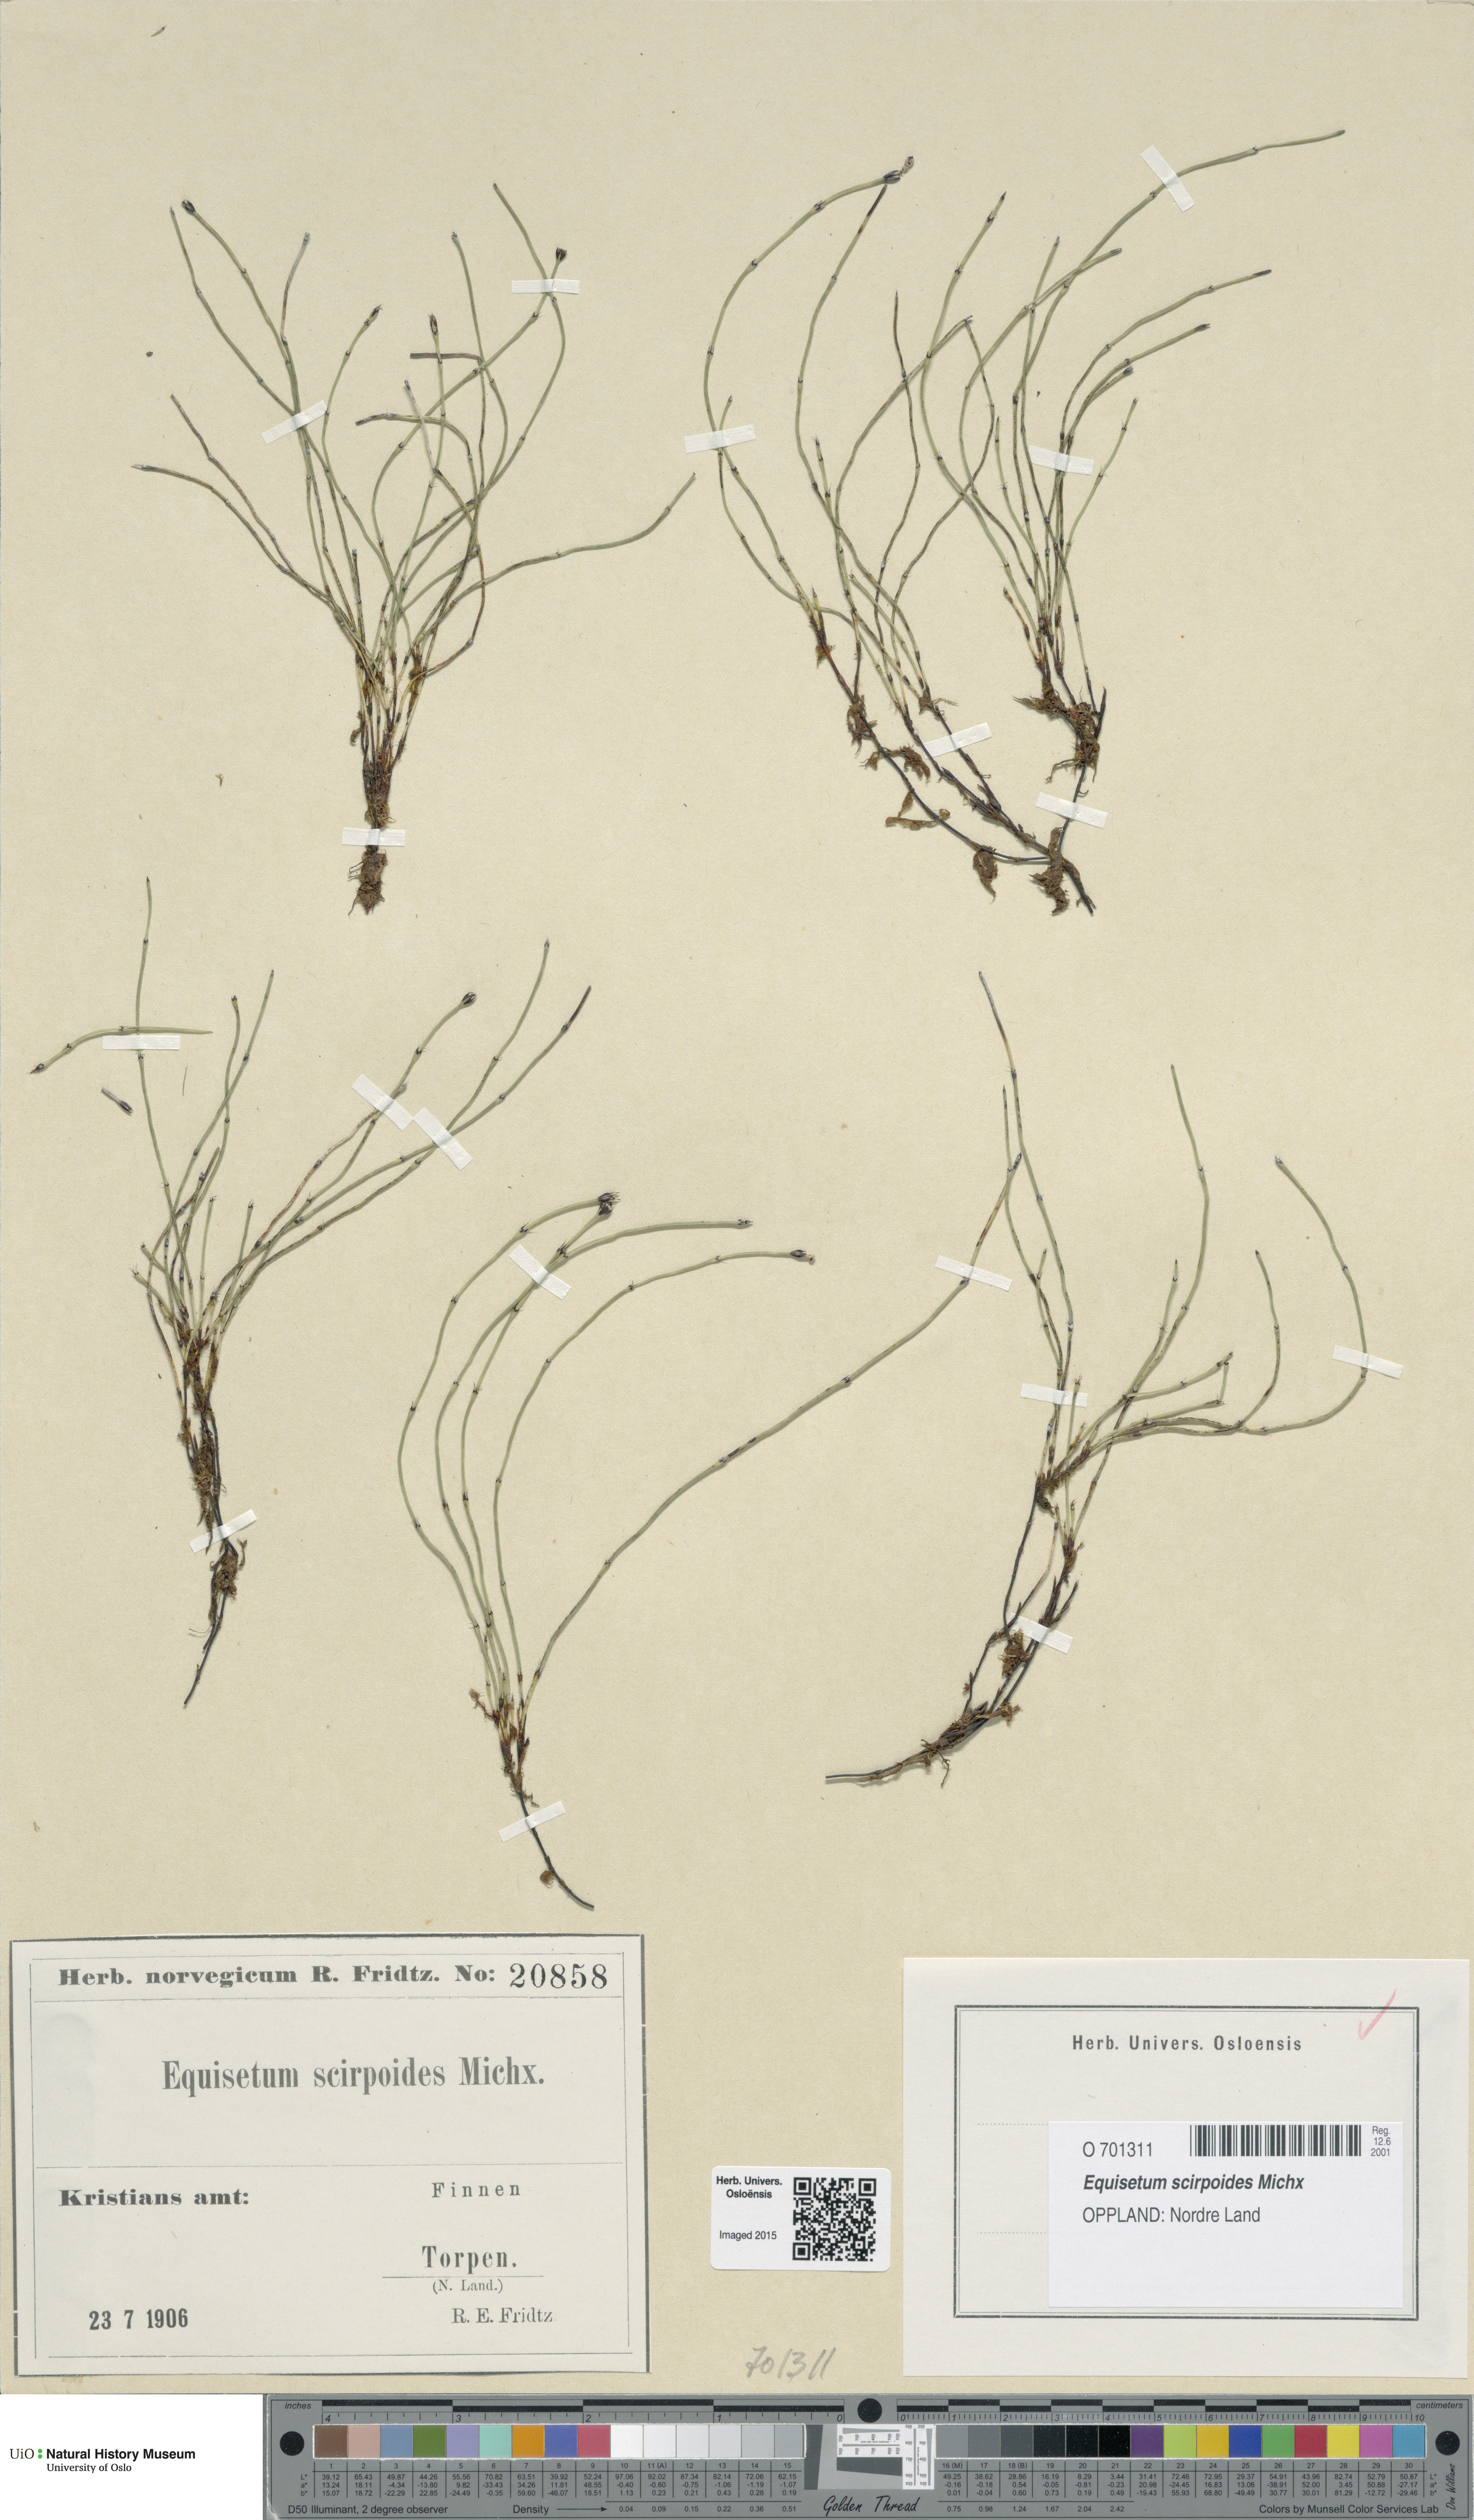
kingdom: Plantae
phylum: Tracheophyta
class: Polypodiopsida
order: Equisetales
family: Equisetaceae
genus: Equisetum
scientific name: Equisetum scirpoides
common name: Delicate horsetail
